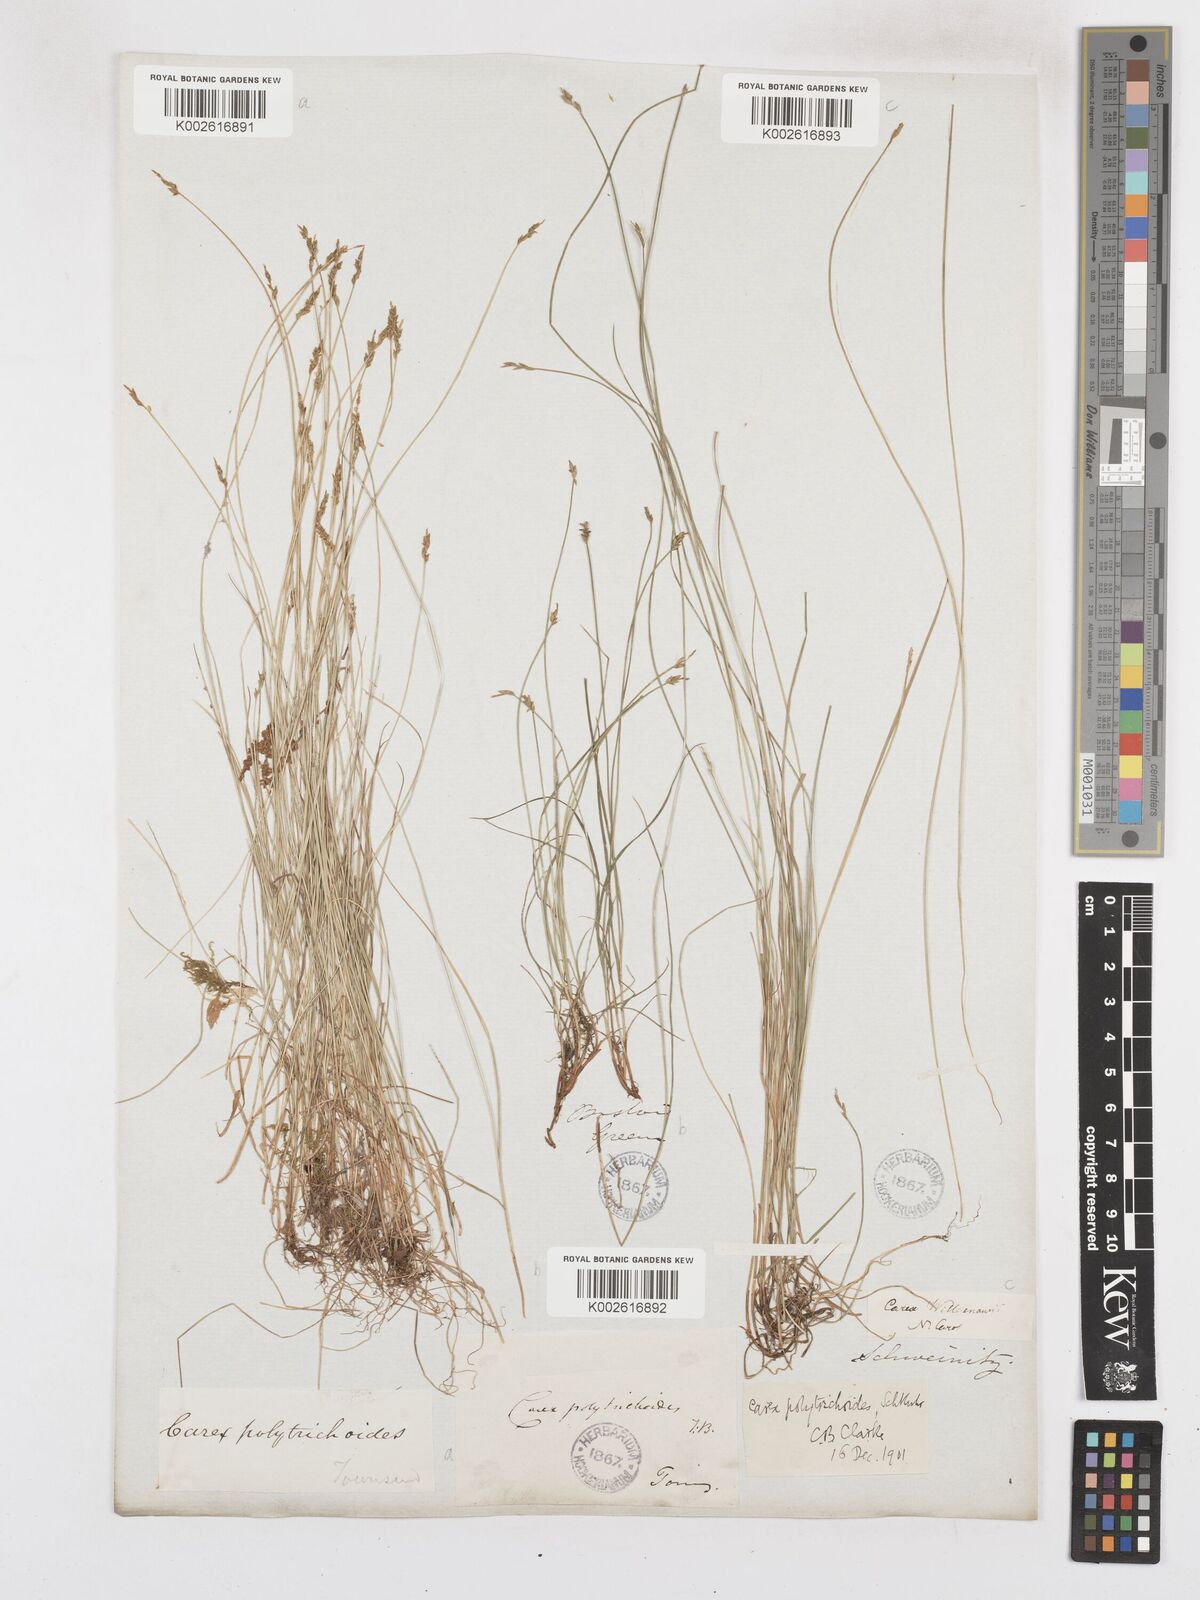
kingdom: Plantae
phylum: Tracheophyta
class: Liliopsida
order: Poales
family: Cyperaceae
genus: Carex
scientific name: Carex leptalea
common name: Bristly-stalked sedge
